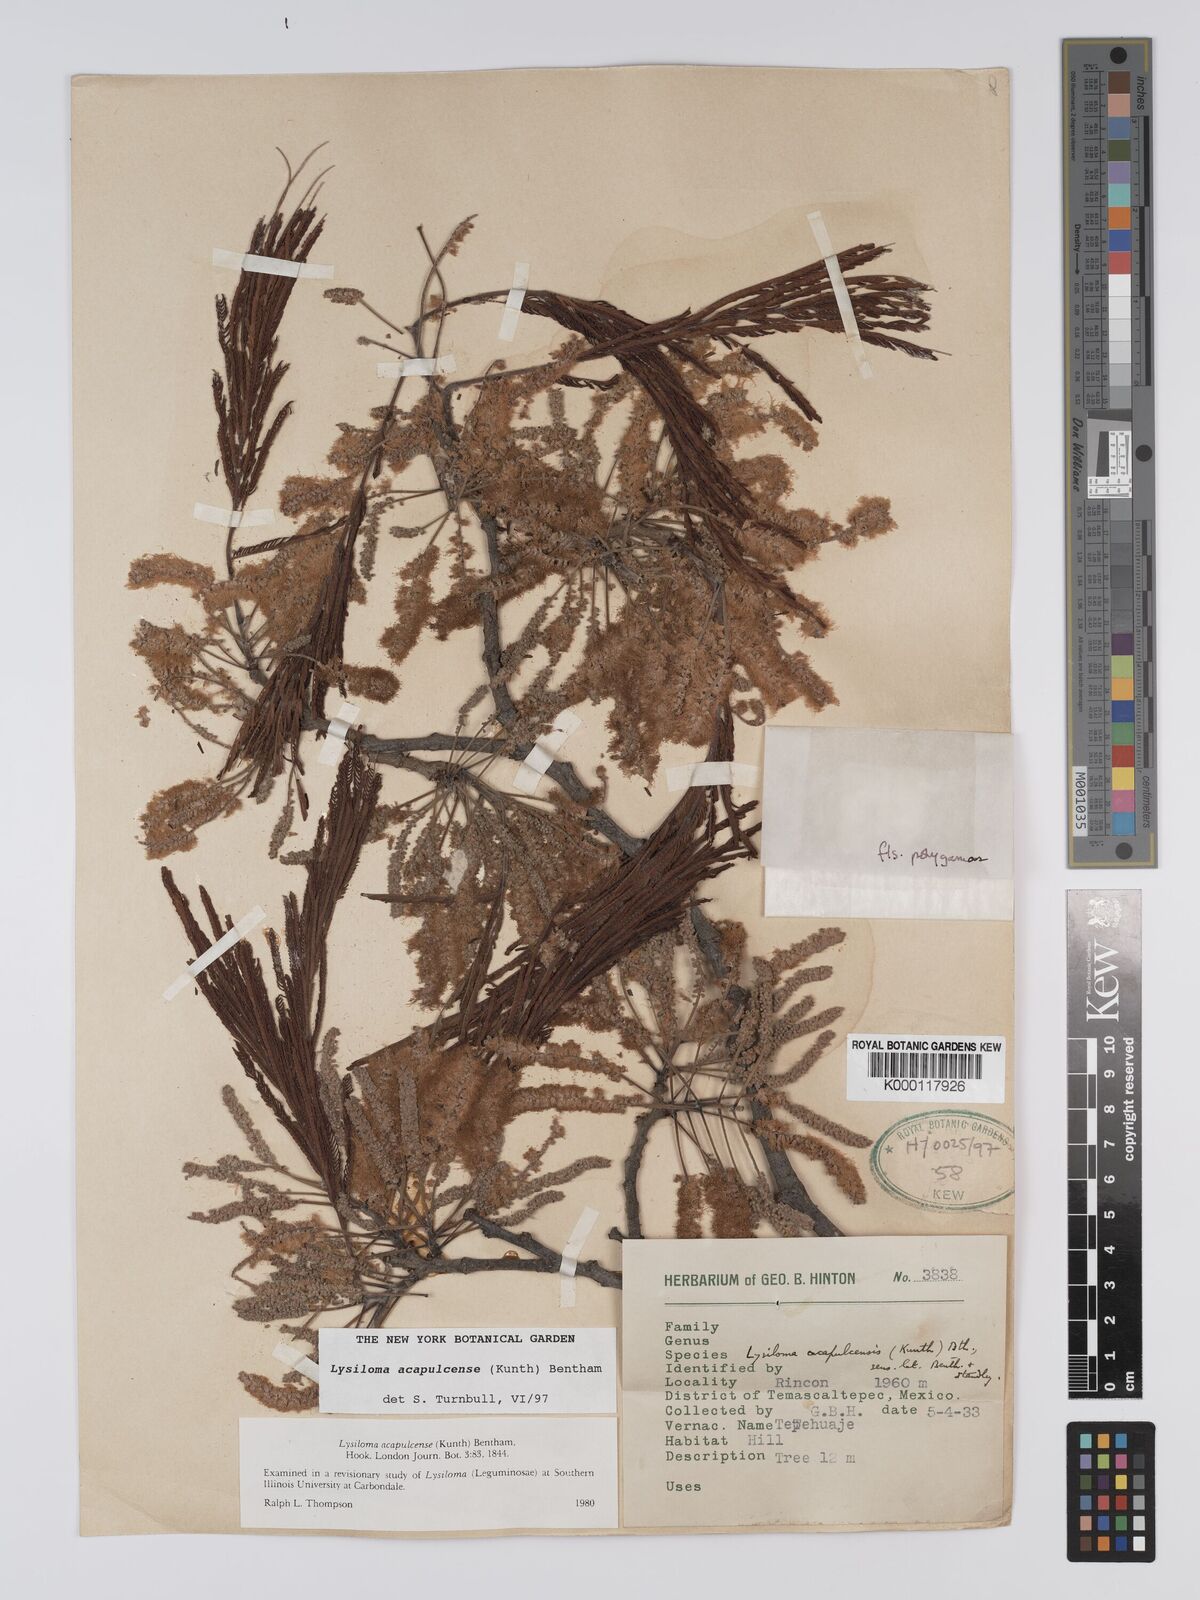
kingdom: Plantae
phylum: Tracheophyta
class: Magnoliopsida
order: Fabales
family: Fabaceae
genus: Lysiloma
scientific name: Lysiloma acapulcense
